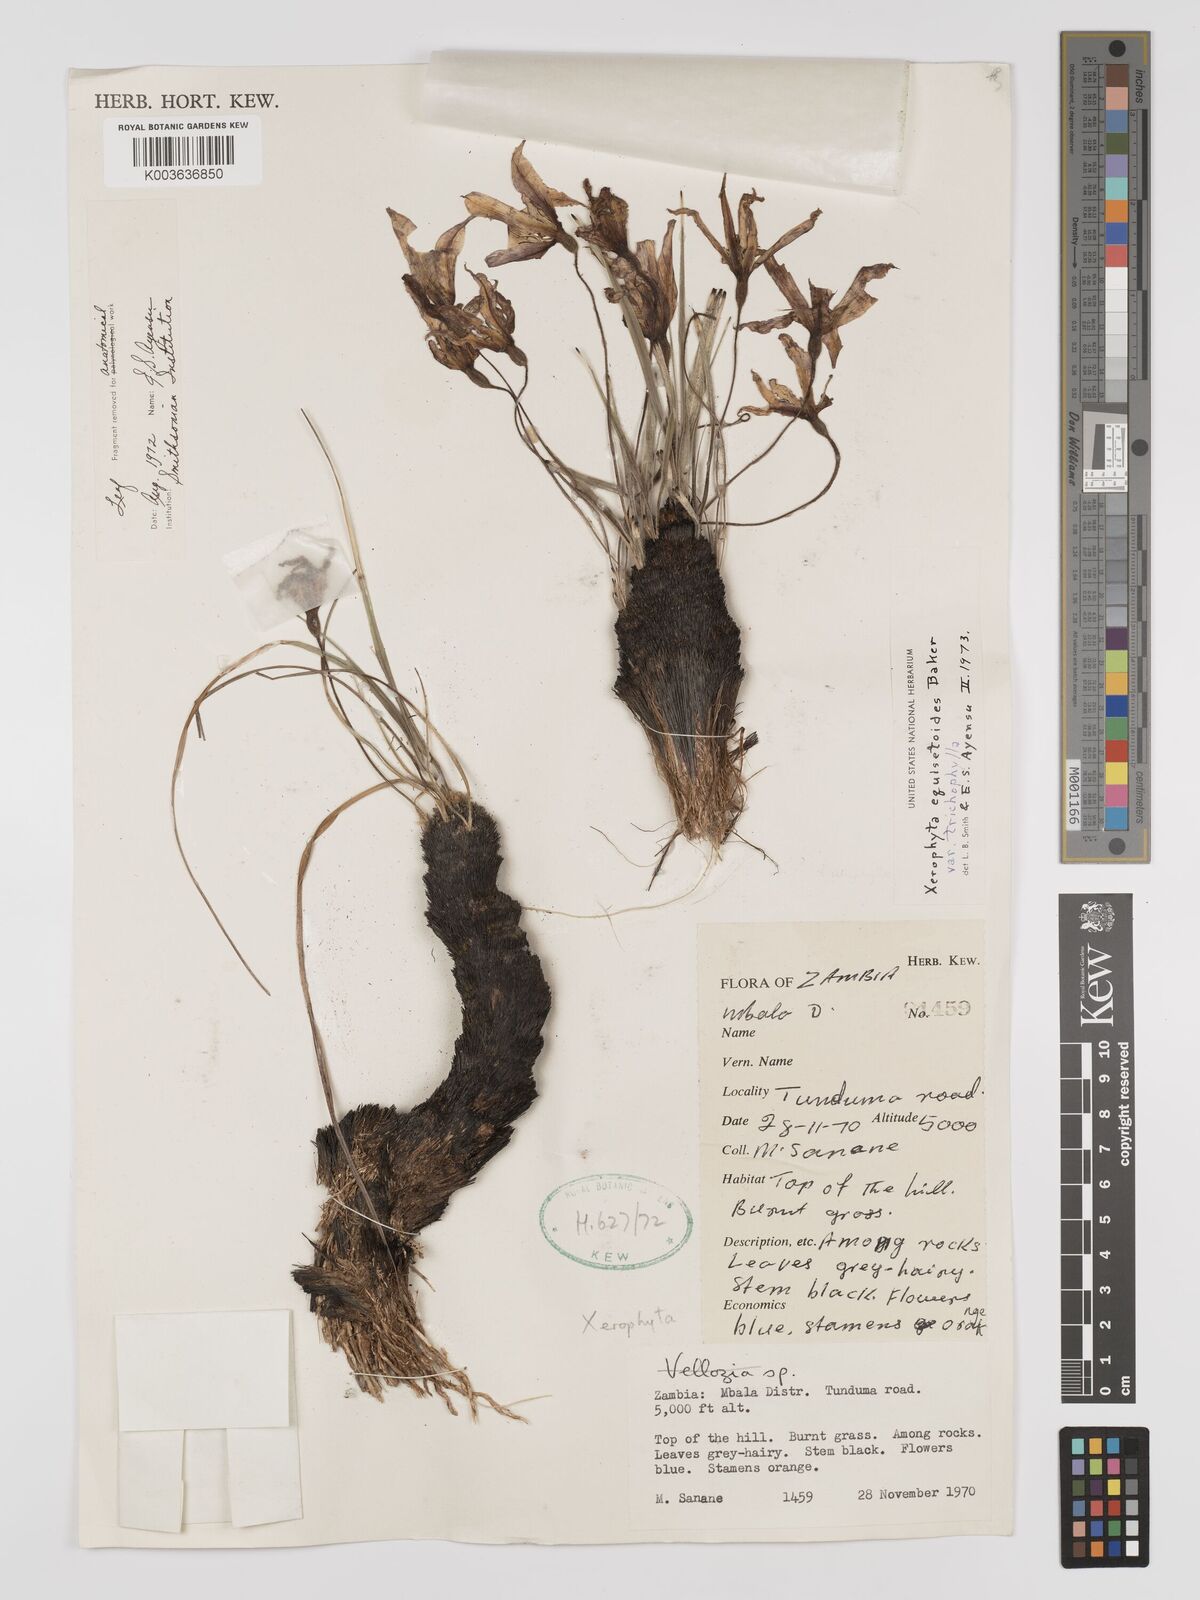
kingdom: Plantae
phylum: Tracheophyta
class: Liliopsida
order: Pandanales
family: Velloziaceae
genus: Xerophyta
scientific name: Xerophyta trichophylla
